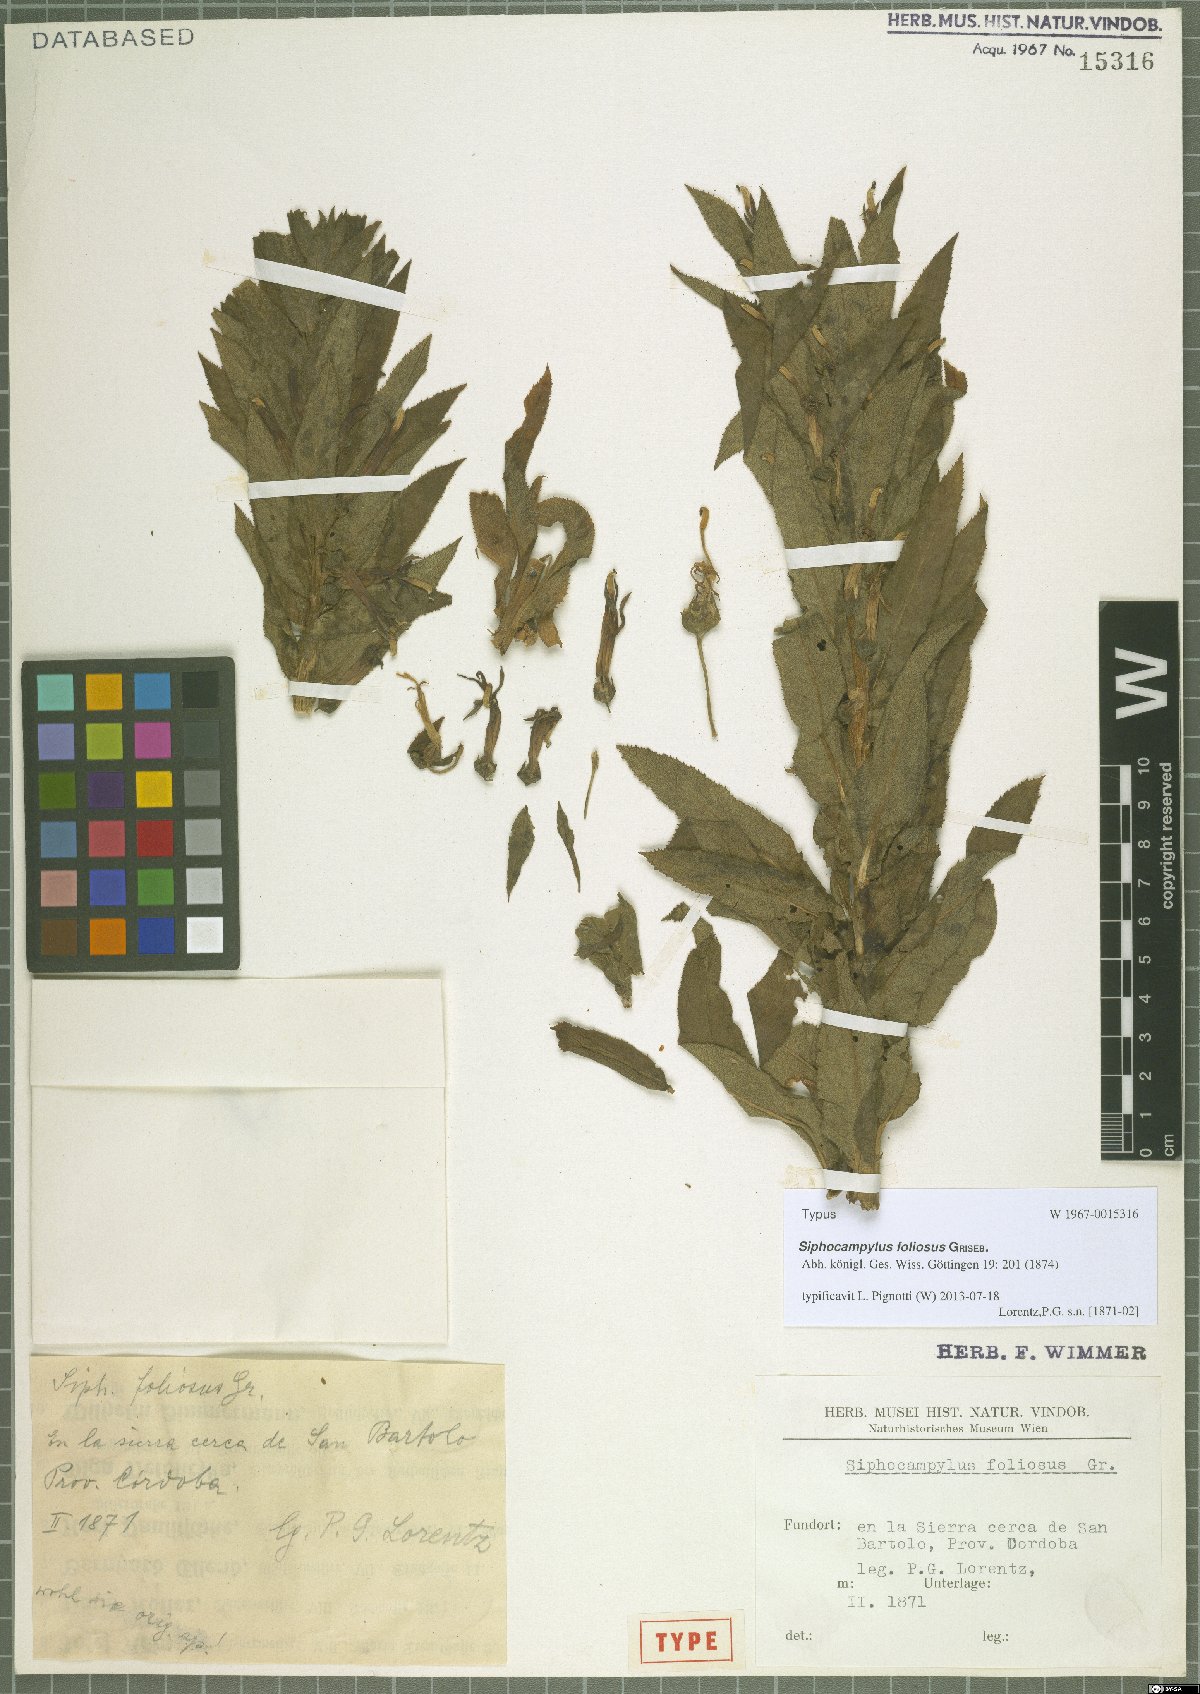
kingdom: Plantae
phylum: Tracheophyta
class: Magnoliopsida
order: Asterales
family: Campanulaceae
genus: Siphocampylus
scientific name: Siphocampylus foliosus
